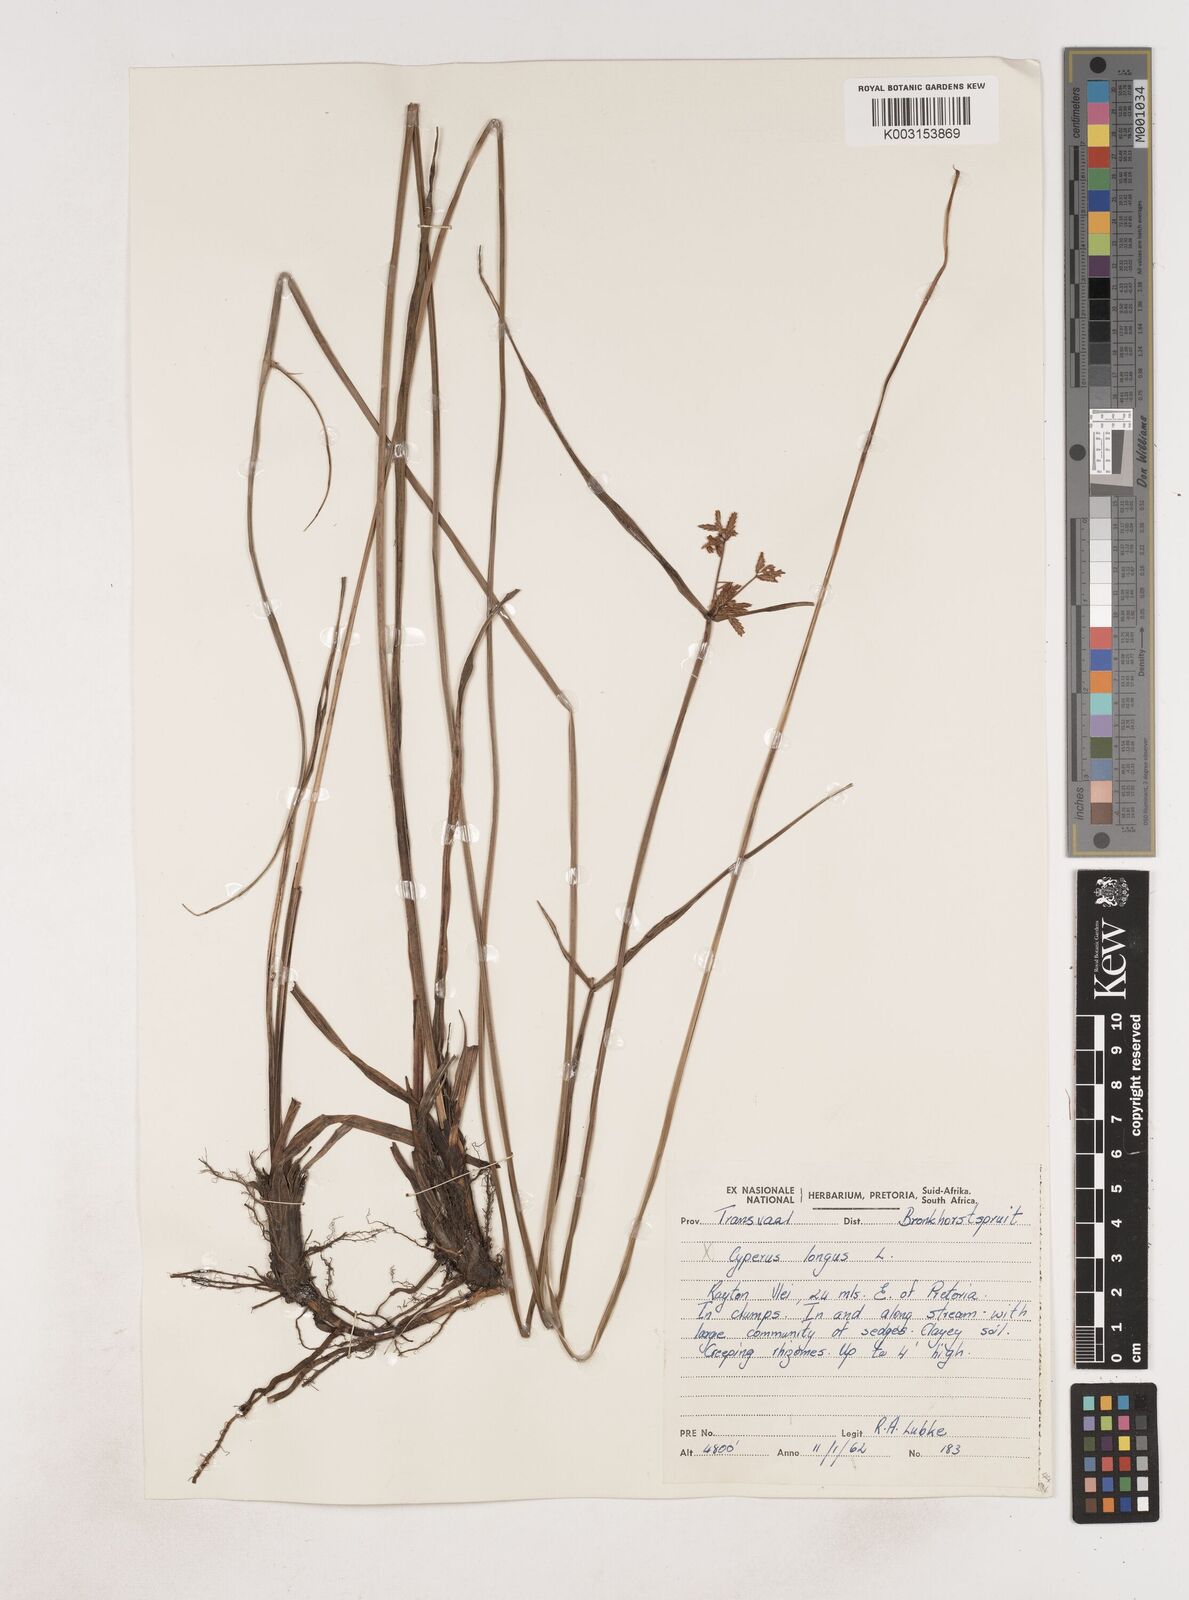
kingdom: Plantae
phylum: Tracheophyta
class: Liliopsida
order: Poales
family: Cyperaceae
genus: Cyperus
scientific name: Cyperus
